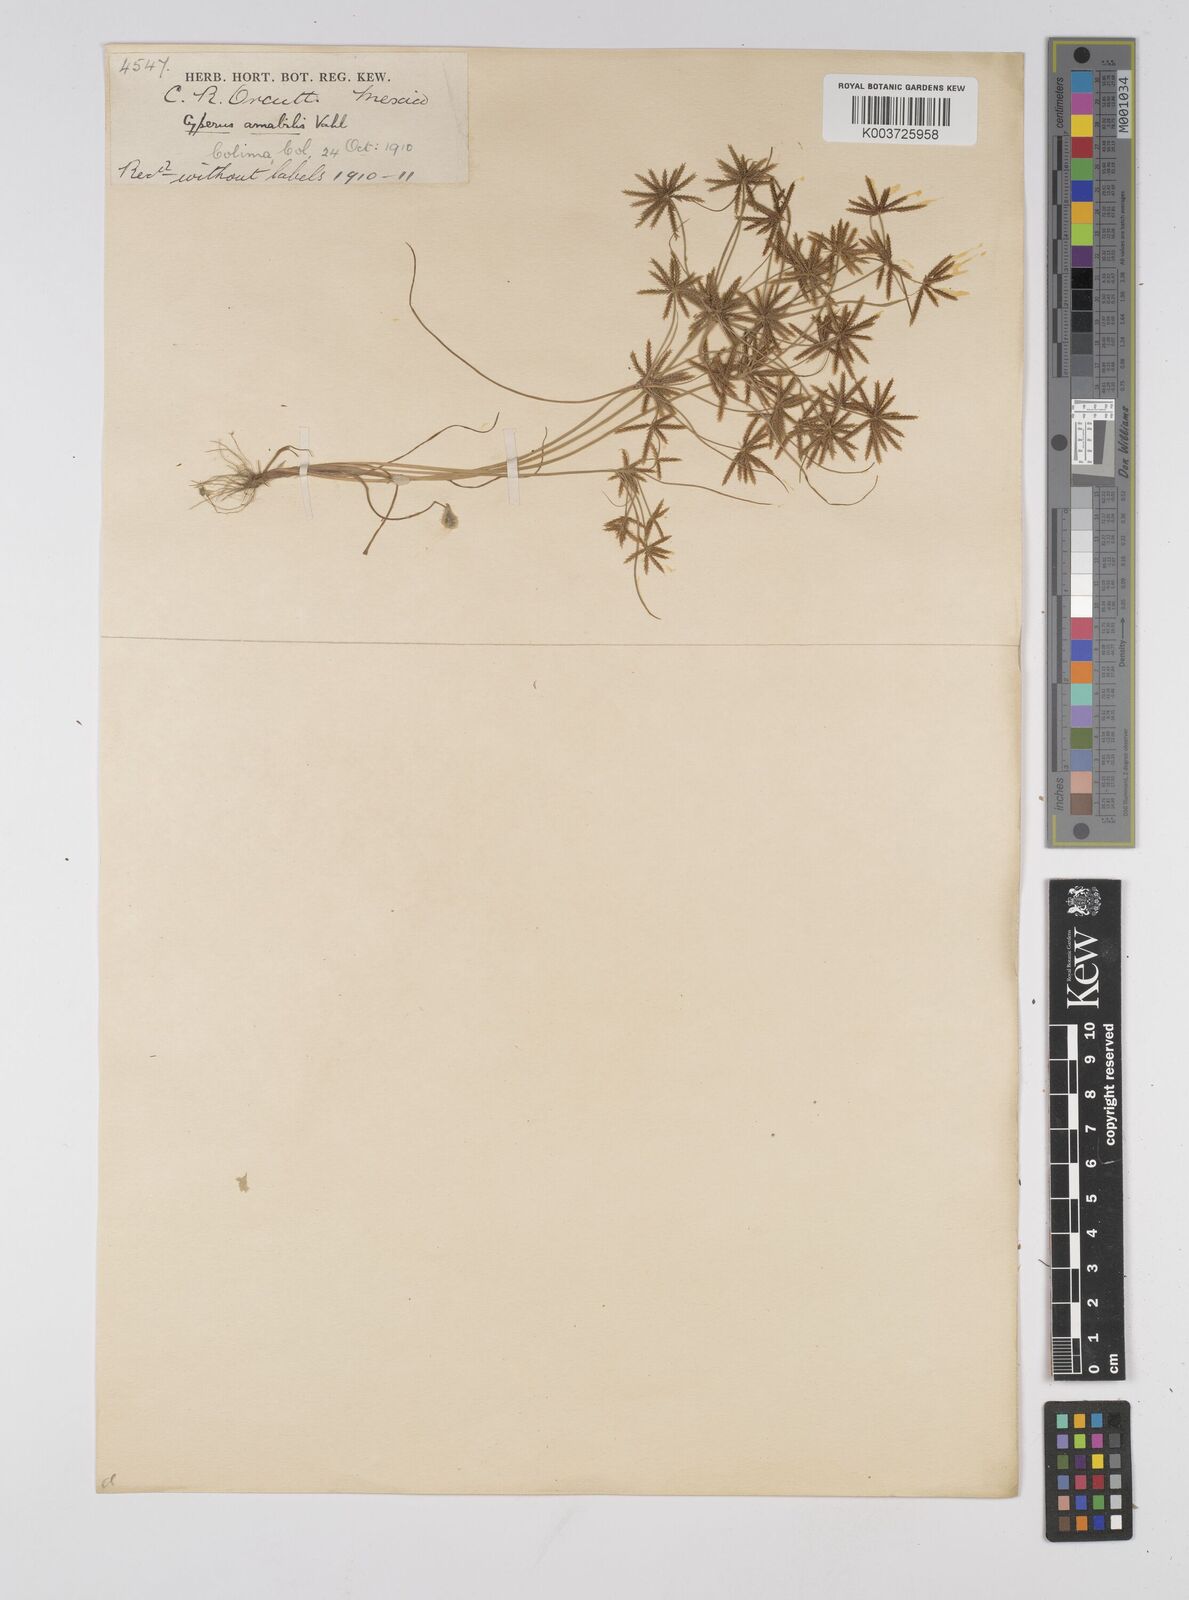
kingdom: Plantae
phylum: Tracheophyta
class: Liliopsida
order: Poales
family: Cyperaceae
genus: Cyperus
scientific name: Cyperus amabilis
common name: Foothill flat sedge
